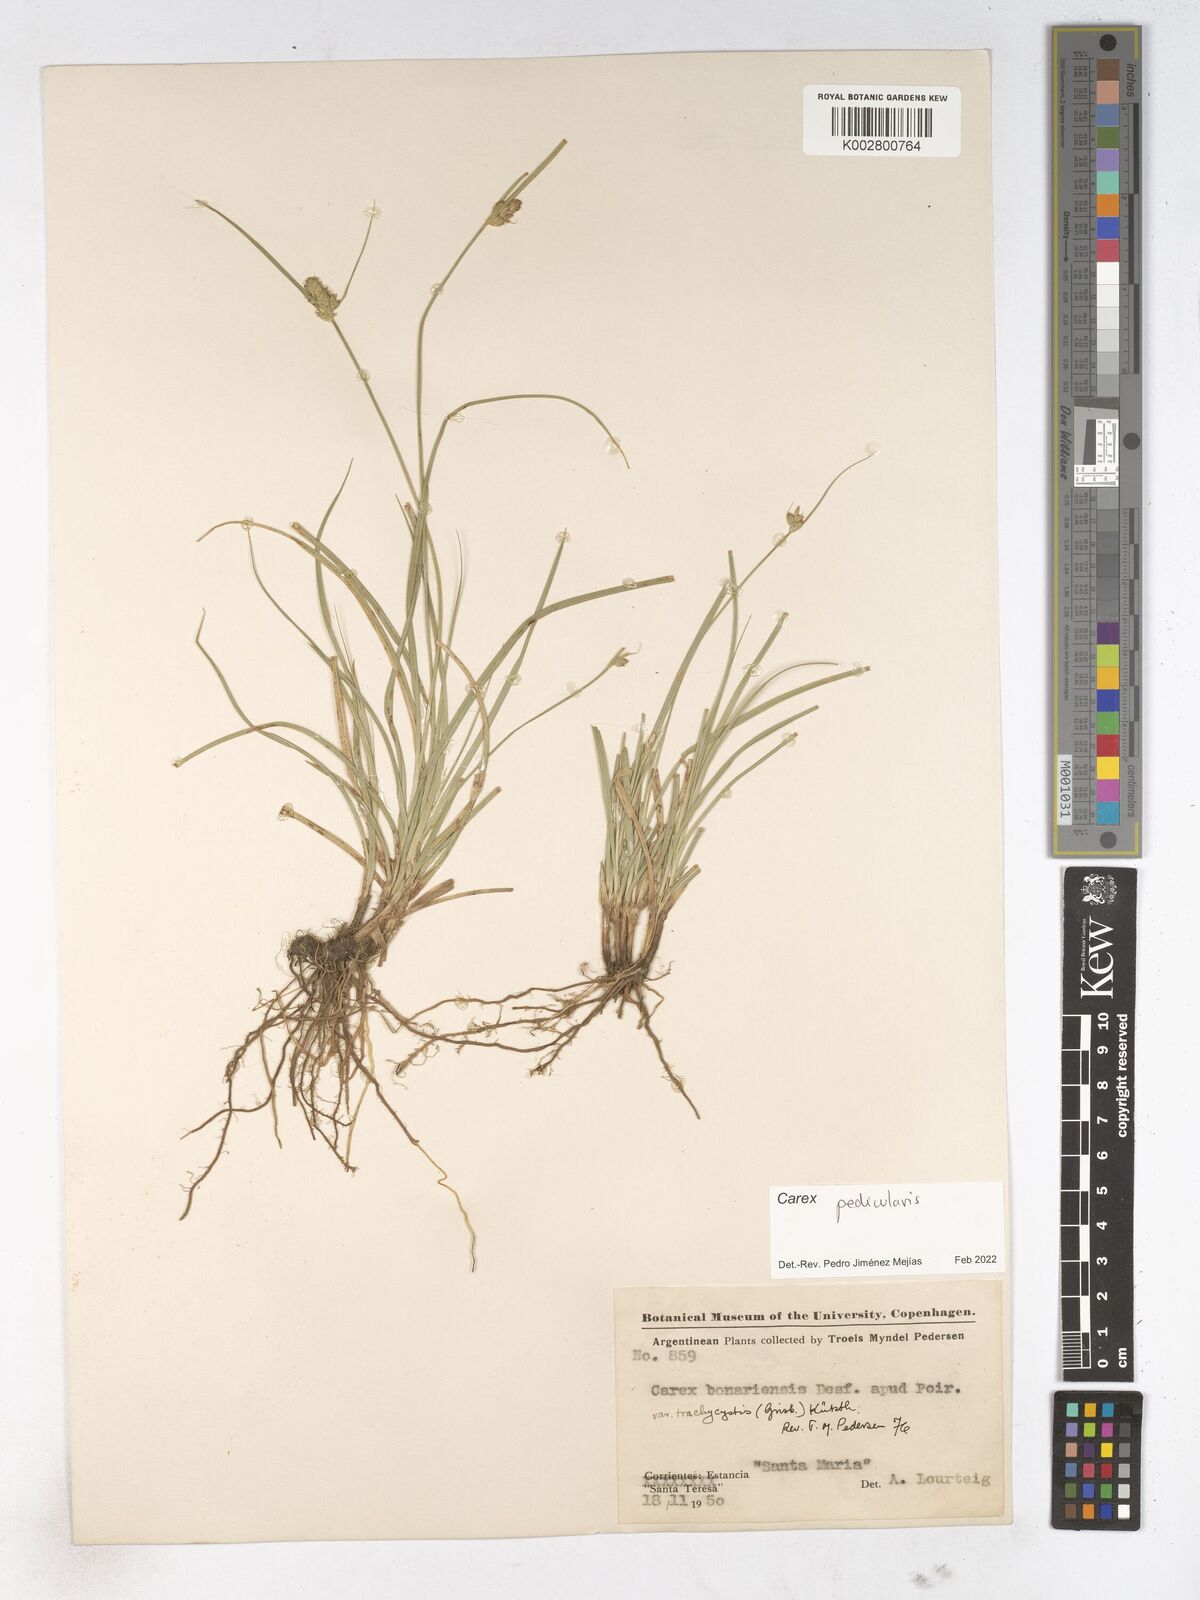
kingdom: Plantae
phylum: Tracheophyta
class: Liliopsida
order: Poales
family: Cyperaceae
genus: Carex
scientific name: Carex bonariensis
